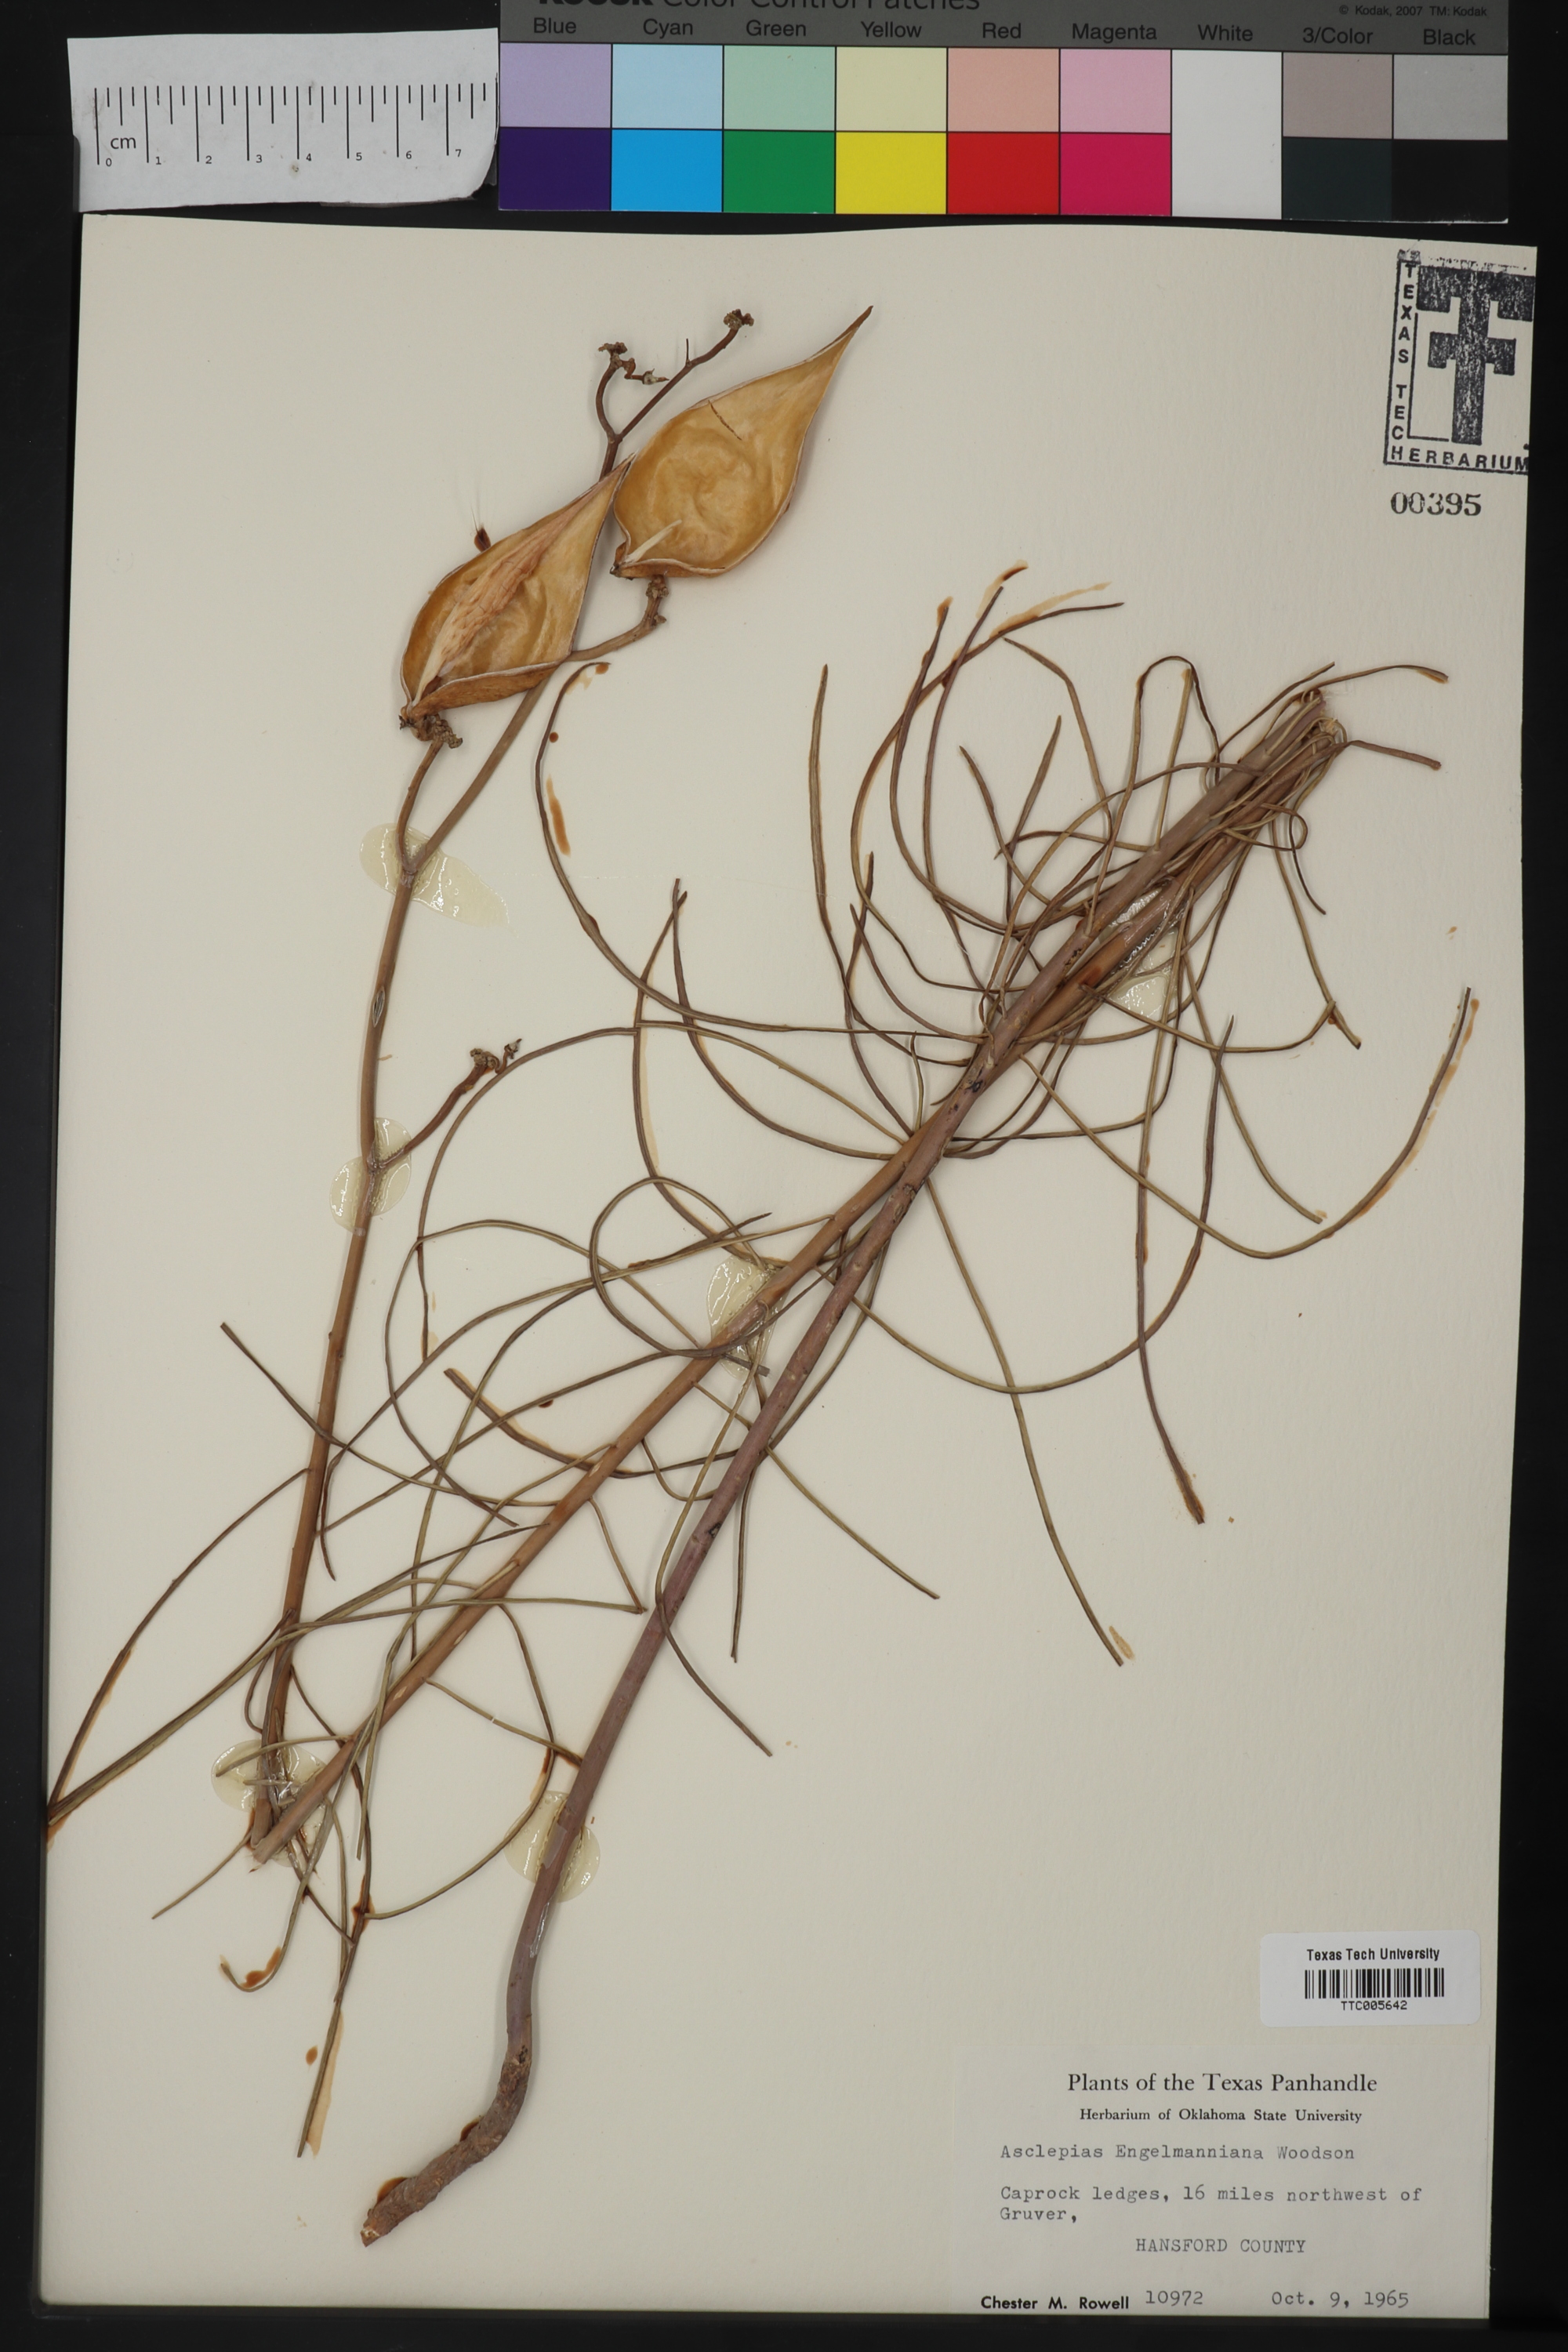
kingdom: Plantae
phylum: Tracheophyta
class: Magnoliopsida
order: Gentianales
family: Apocynaceae
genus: Asclepias
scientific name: Asclepias engelmanniana
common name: Engelmann's milkweed
